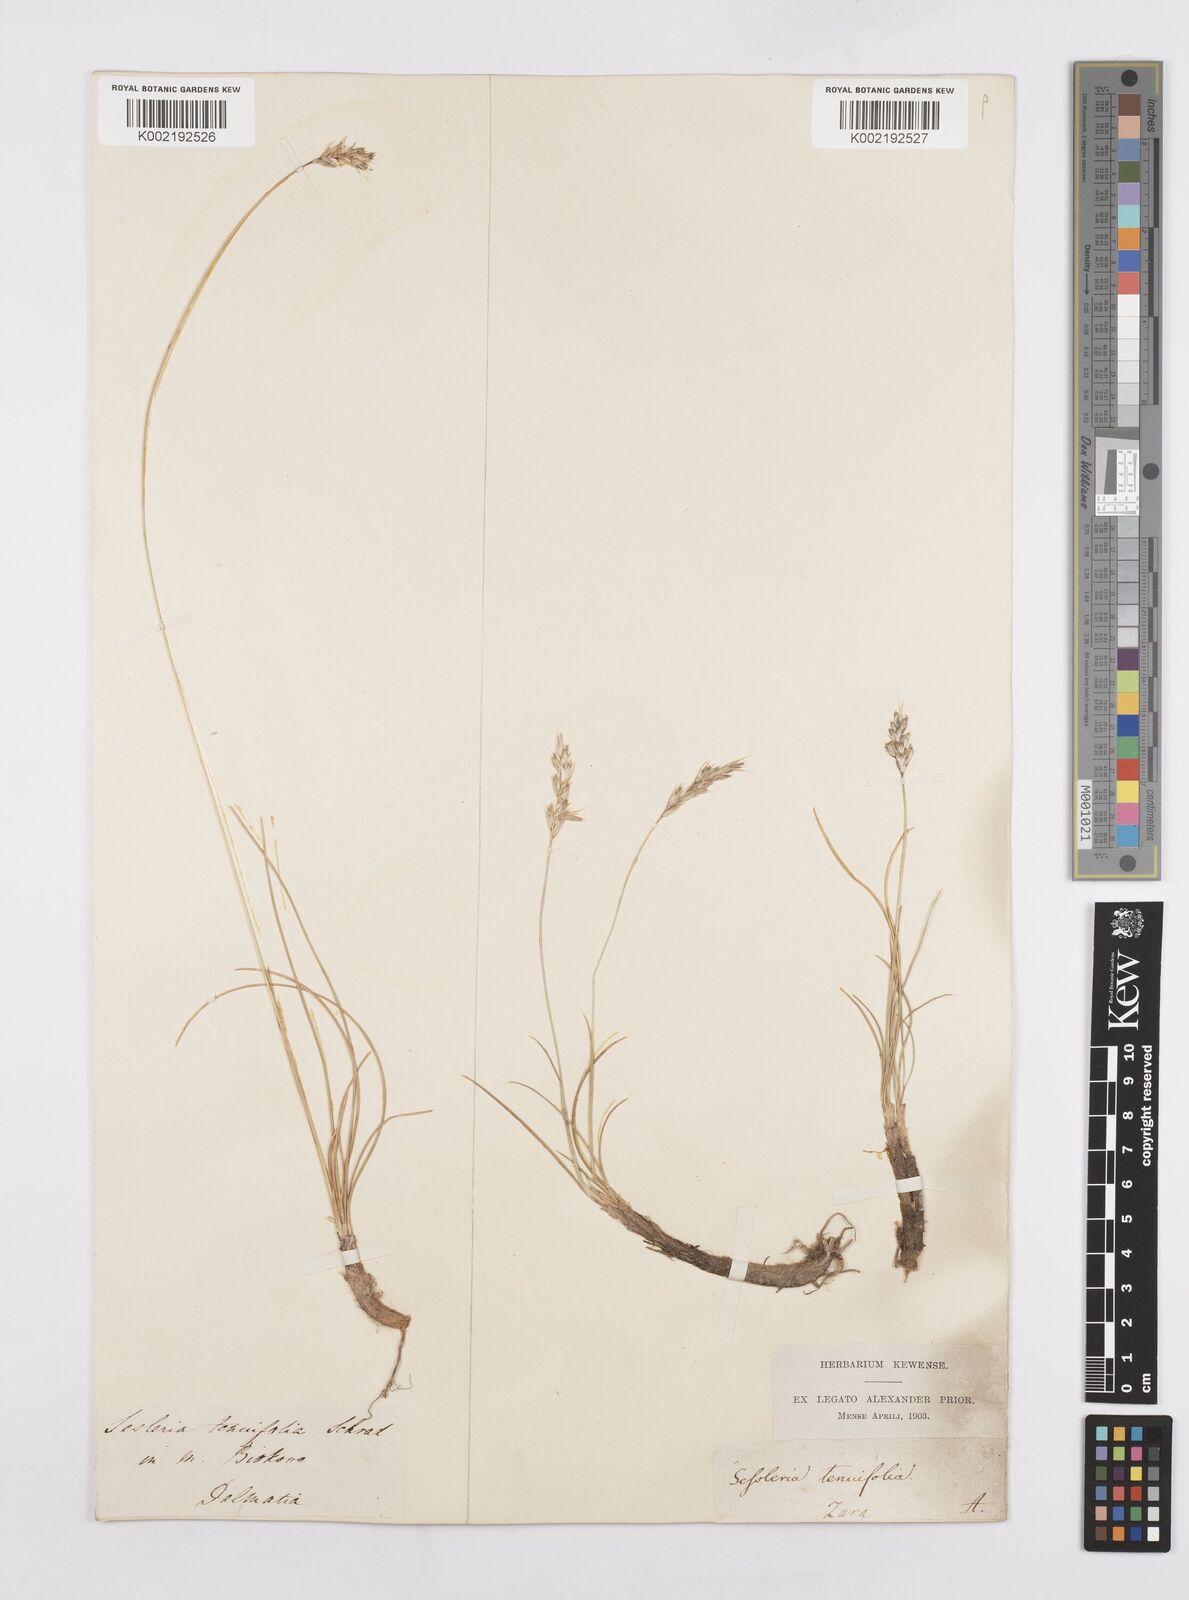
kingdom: Plantae
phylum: Tracheophyta
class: Liliopsida
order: Poales
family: Poaceae
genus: Sesleria
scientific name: Sesleria juncifolia
